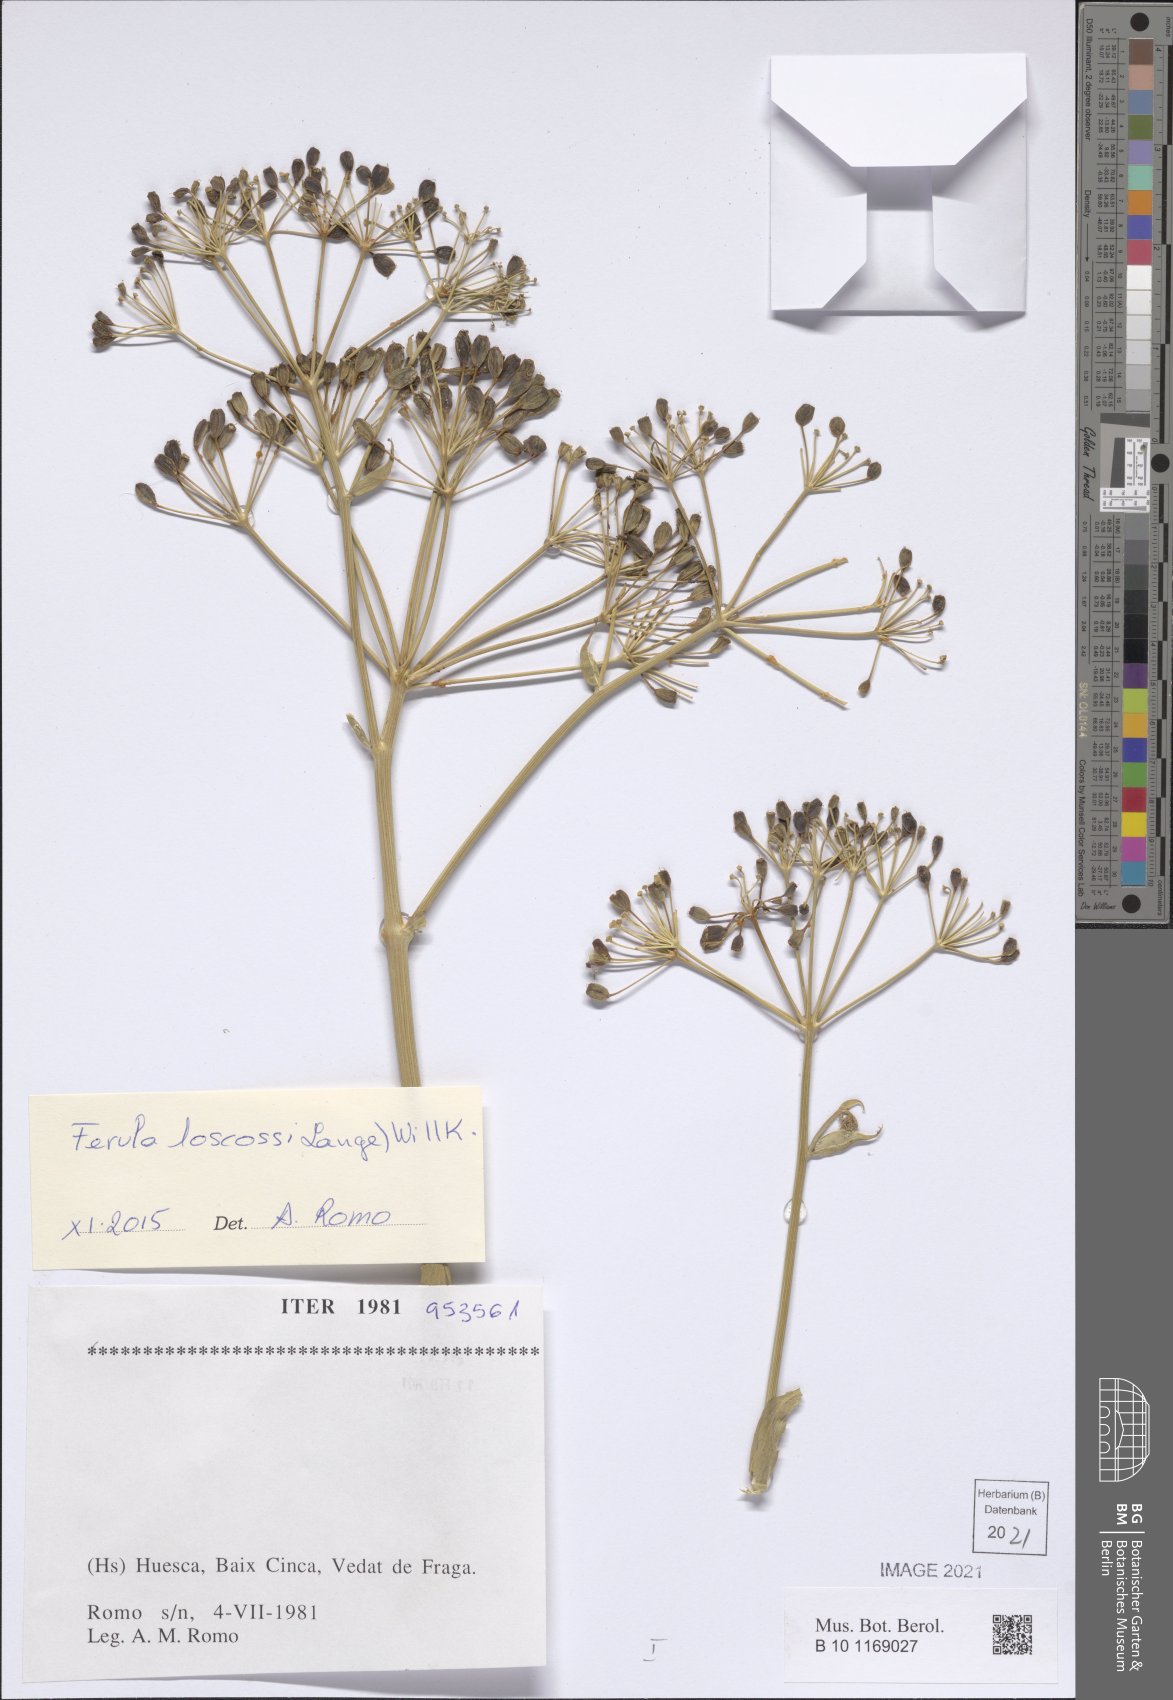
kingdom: Plantae
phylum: Tracheophyta
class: Magnoliopsida
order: Apiales
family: Apiaceae
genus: Ferula
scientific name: Ferula loscosii
